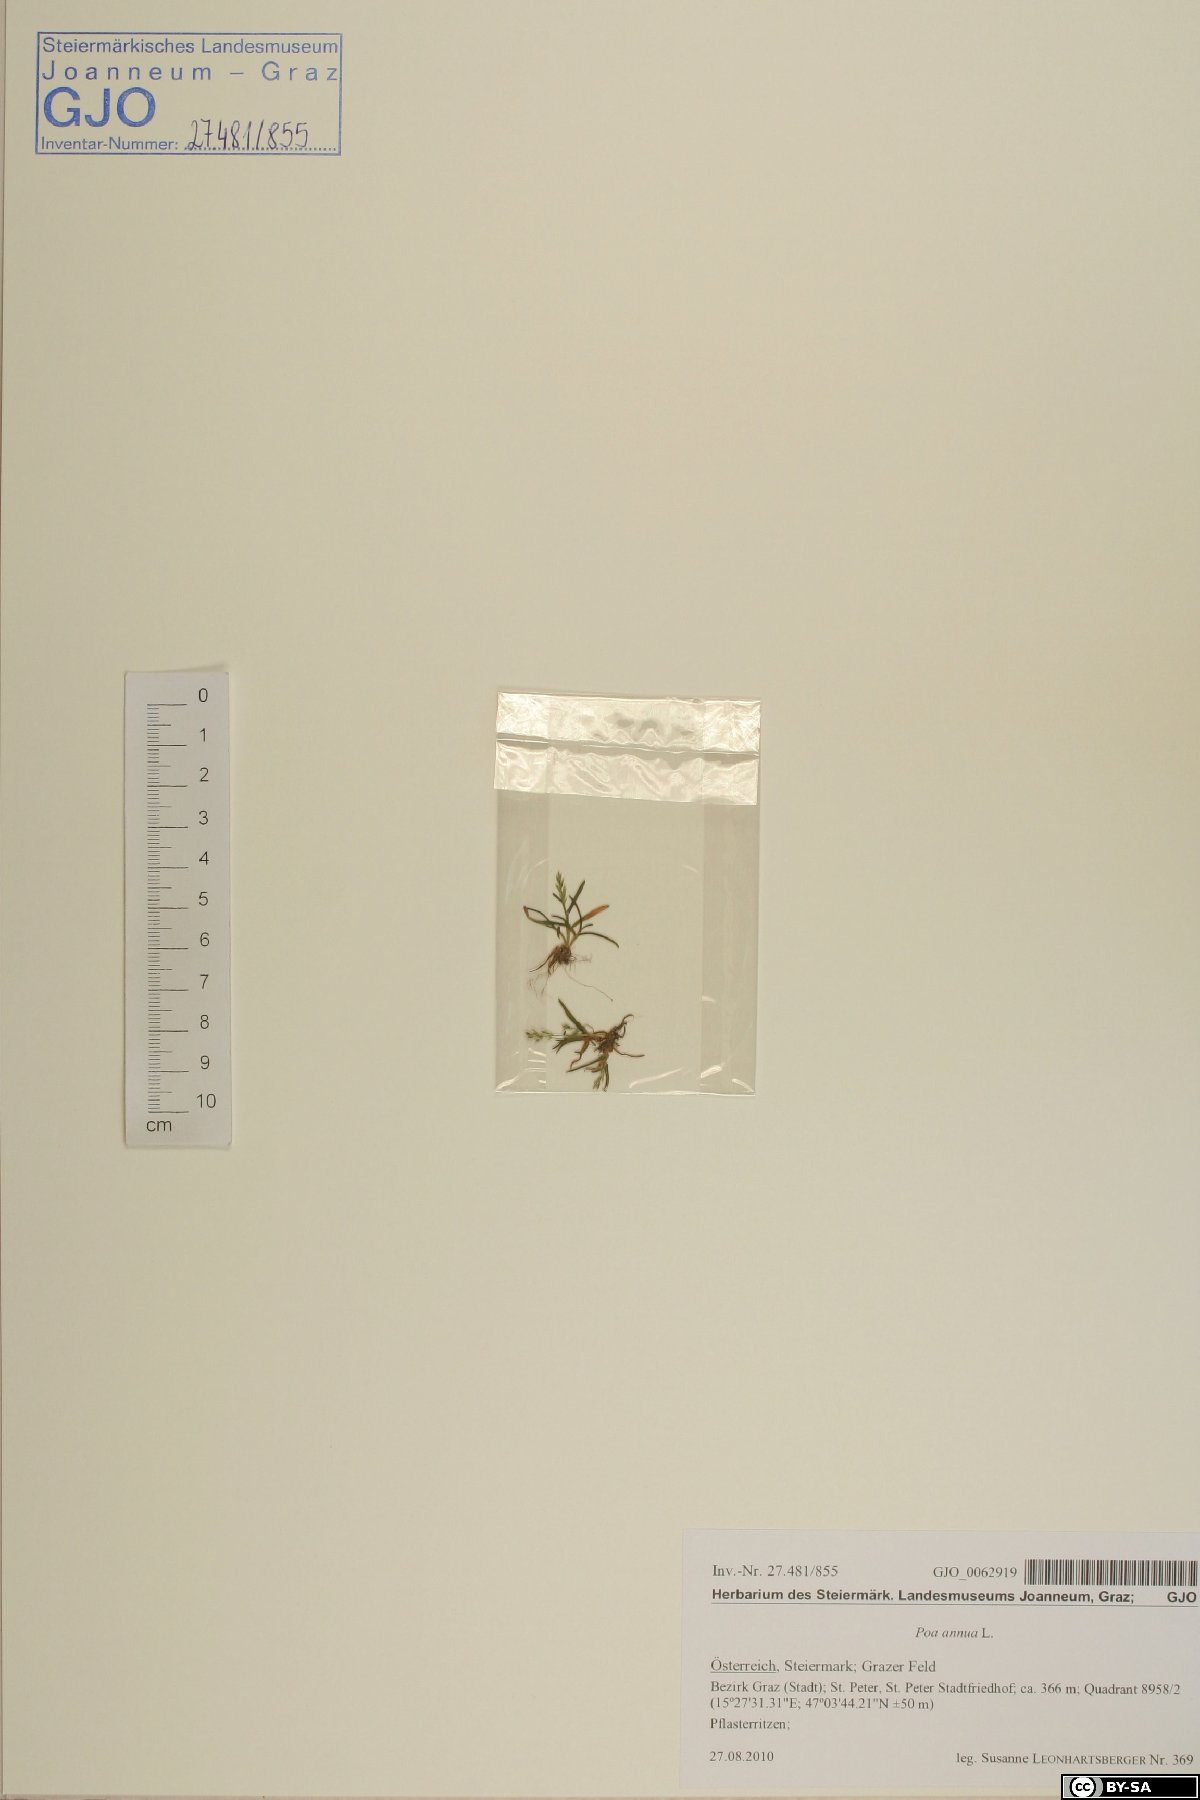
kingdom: Plantae
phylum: Tracheophyta
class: Liliopsida
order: Poales
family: Poaceae
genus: Poa
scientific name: Poa annua
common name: Annual bluegrass
